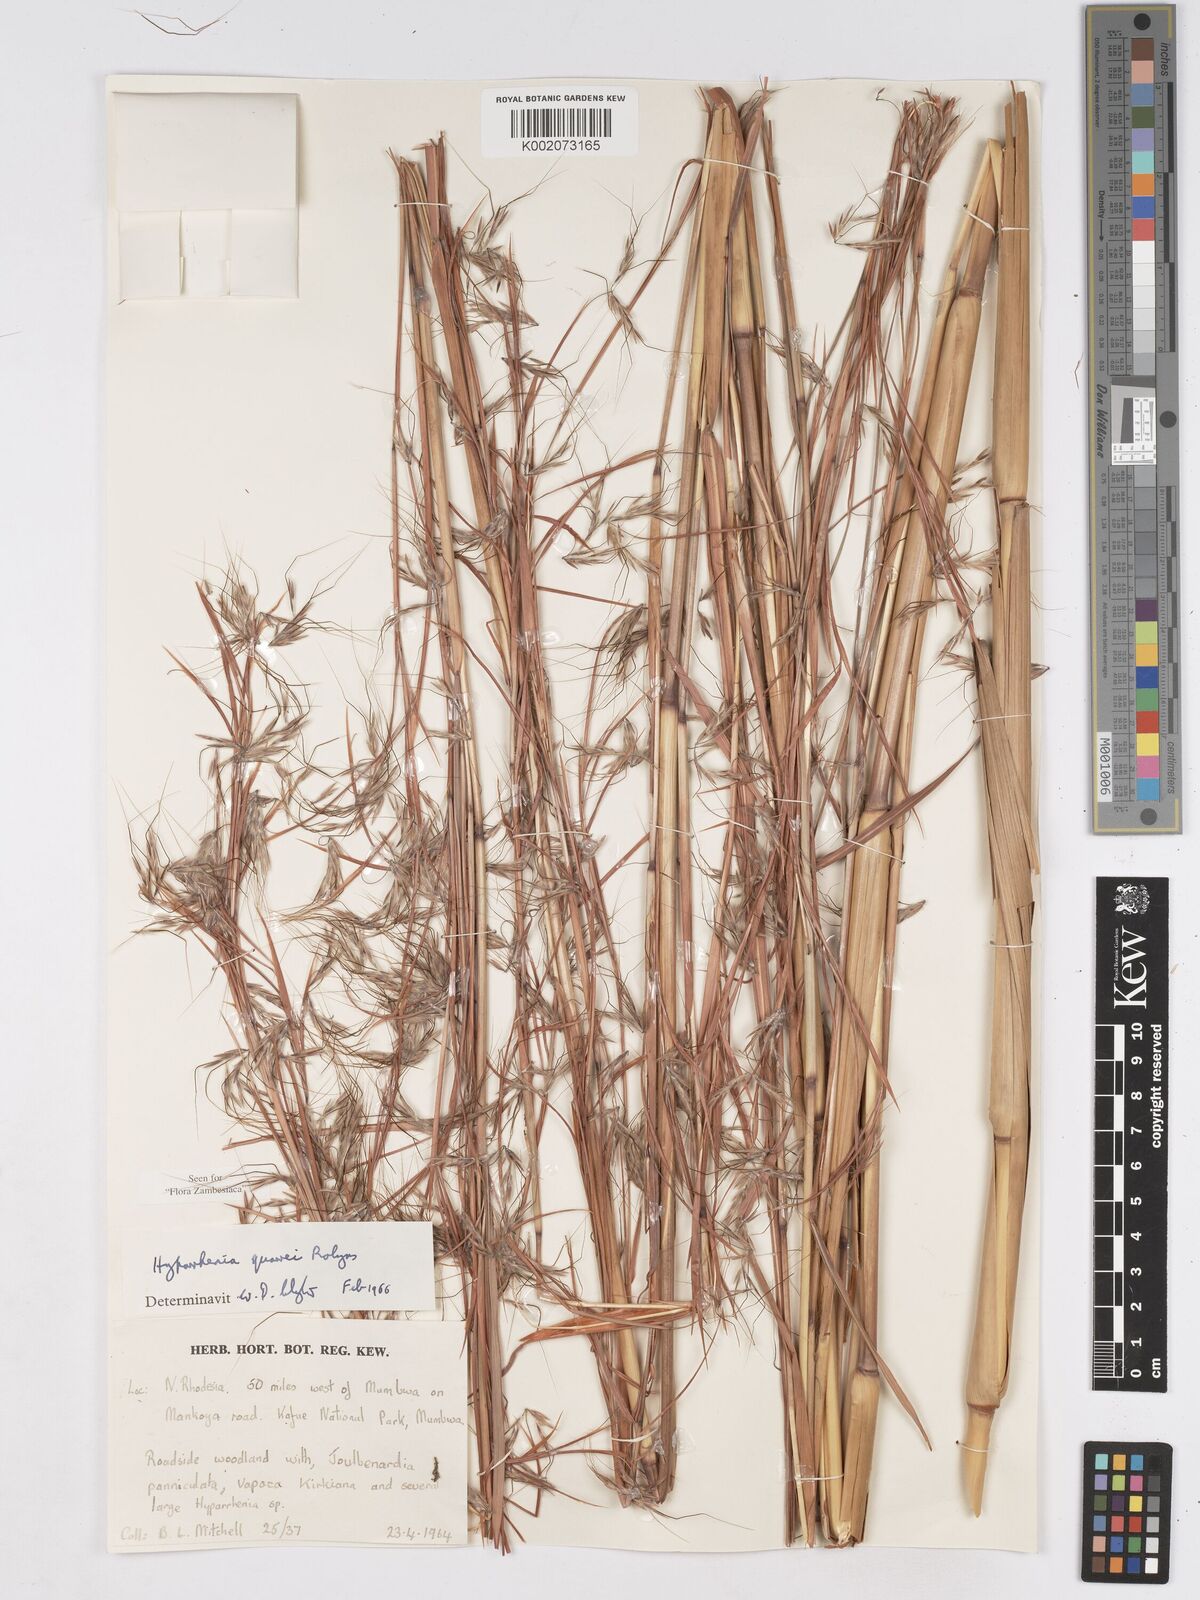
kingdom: Plantae
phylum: Tracheophyta
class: Liliopsida
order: Poales
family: Poaceae
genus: Hyparrhenia
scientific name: Hyparrhenia quarrei
